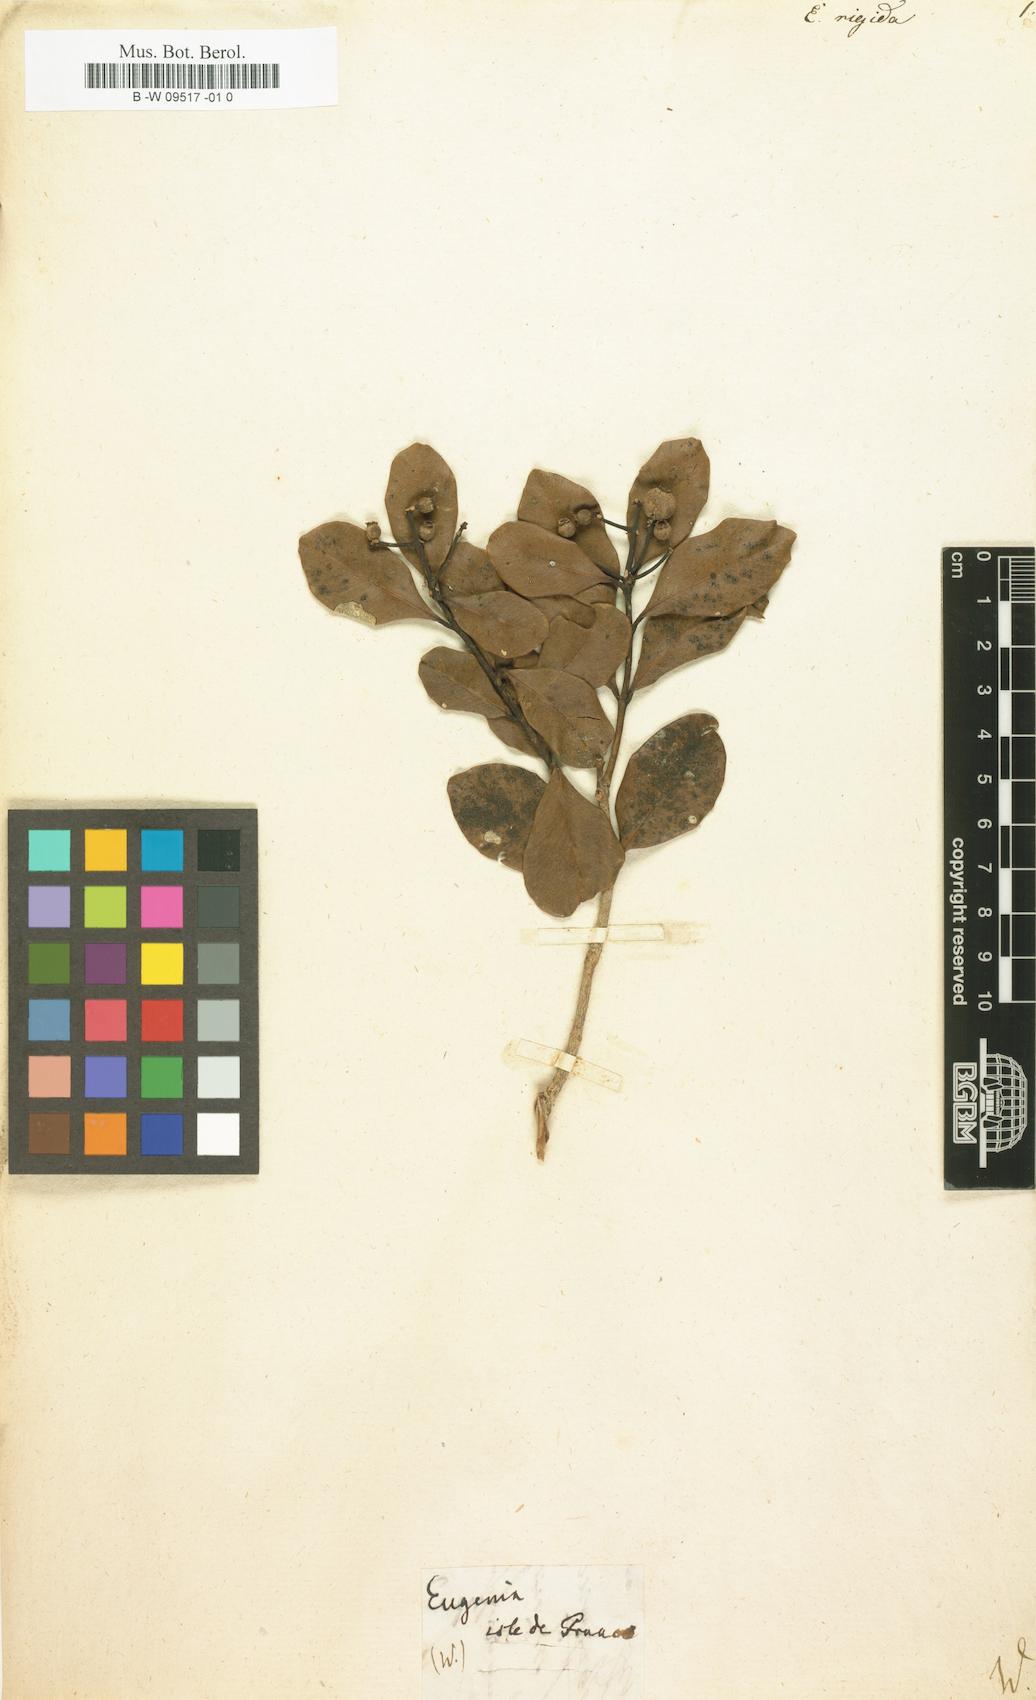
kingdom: Plantae
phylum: Tracheophyta
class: Magnoliopsida
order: Myrtales
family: Myrtaceae
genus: Eugenia
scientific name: Eugenia rigida
